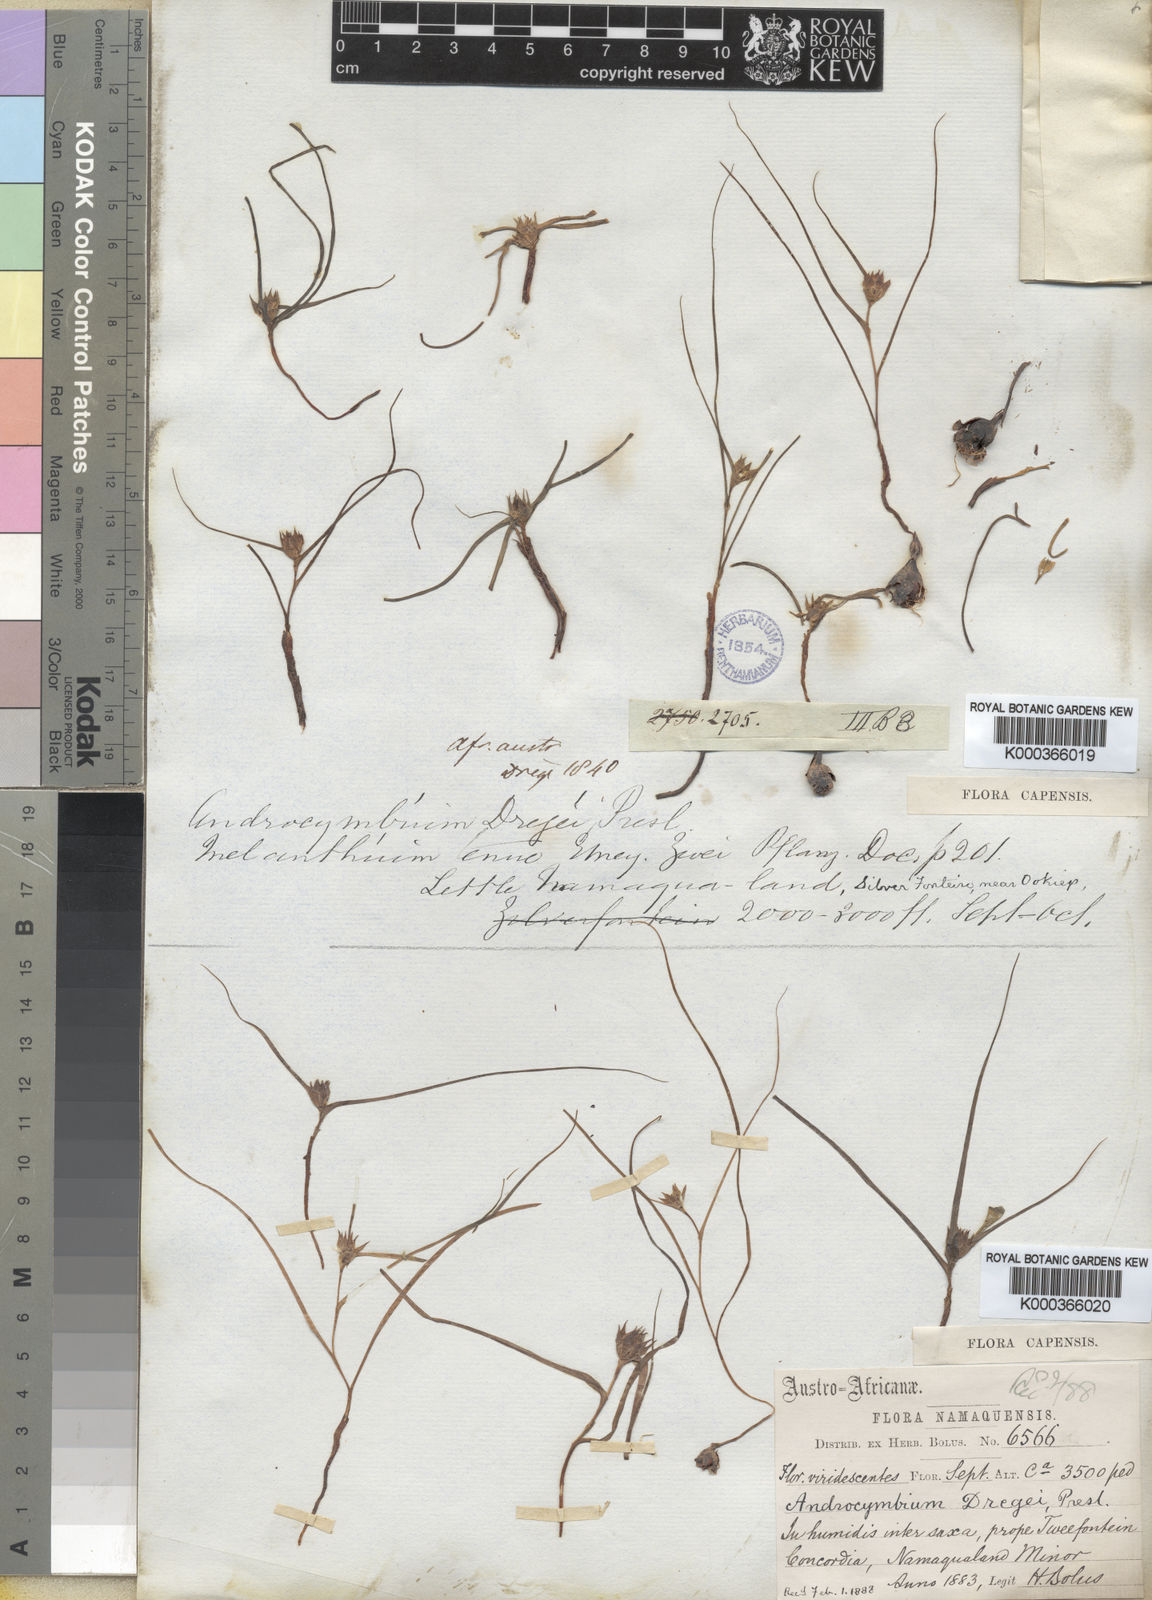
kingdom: Plantae
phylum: Tracheophyta
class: Liliopsida
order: Liliales
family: Colchicaceae
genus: Colchicum
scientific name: Colchicum dregei
